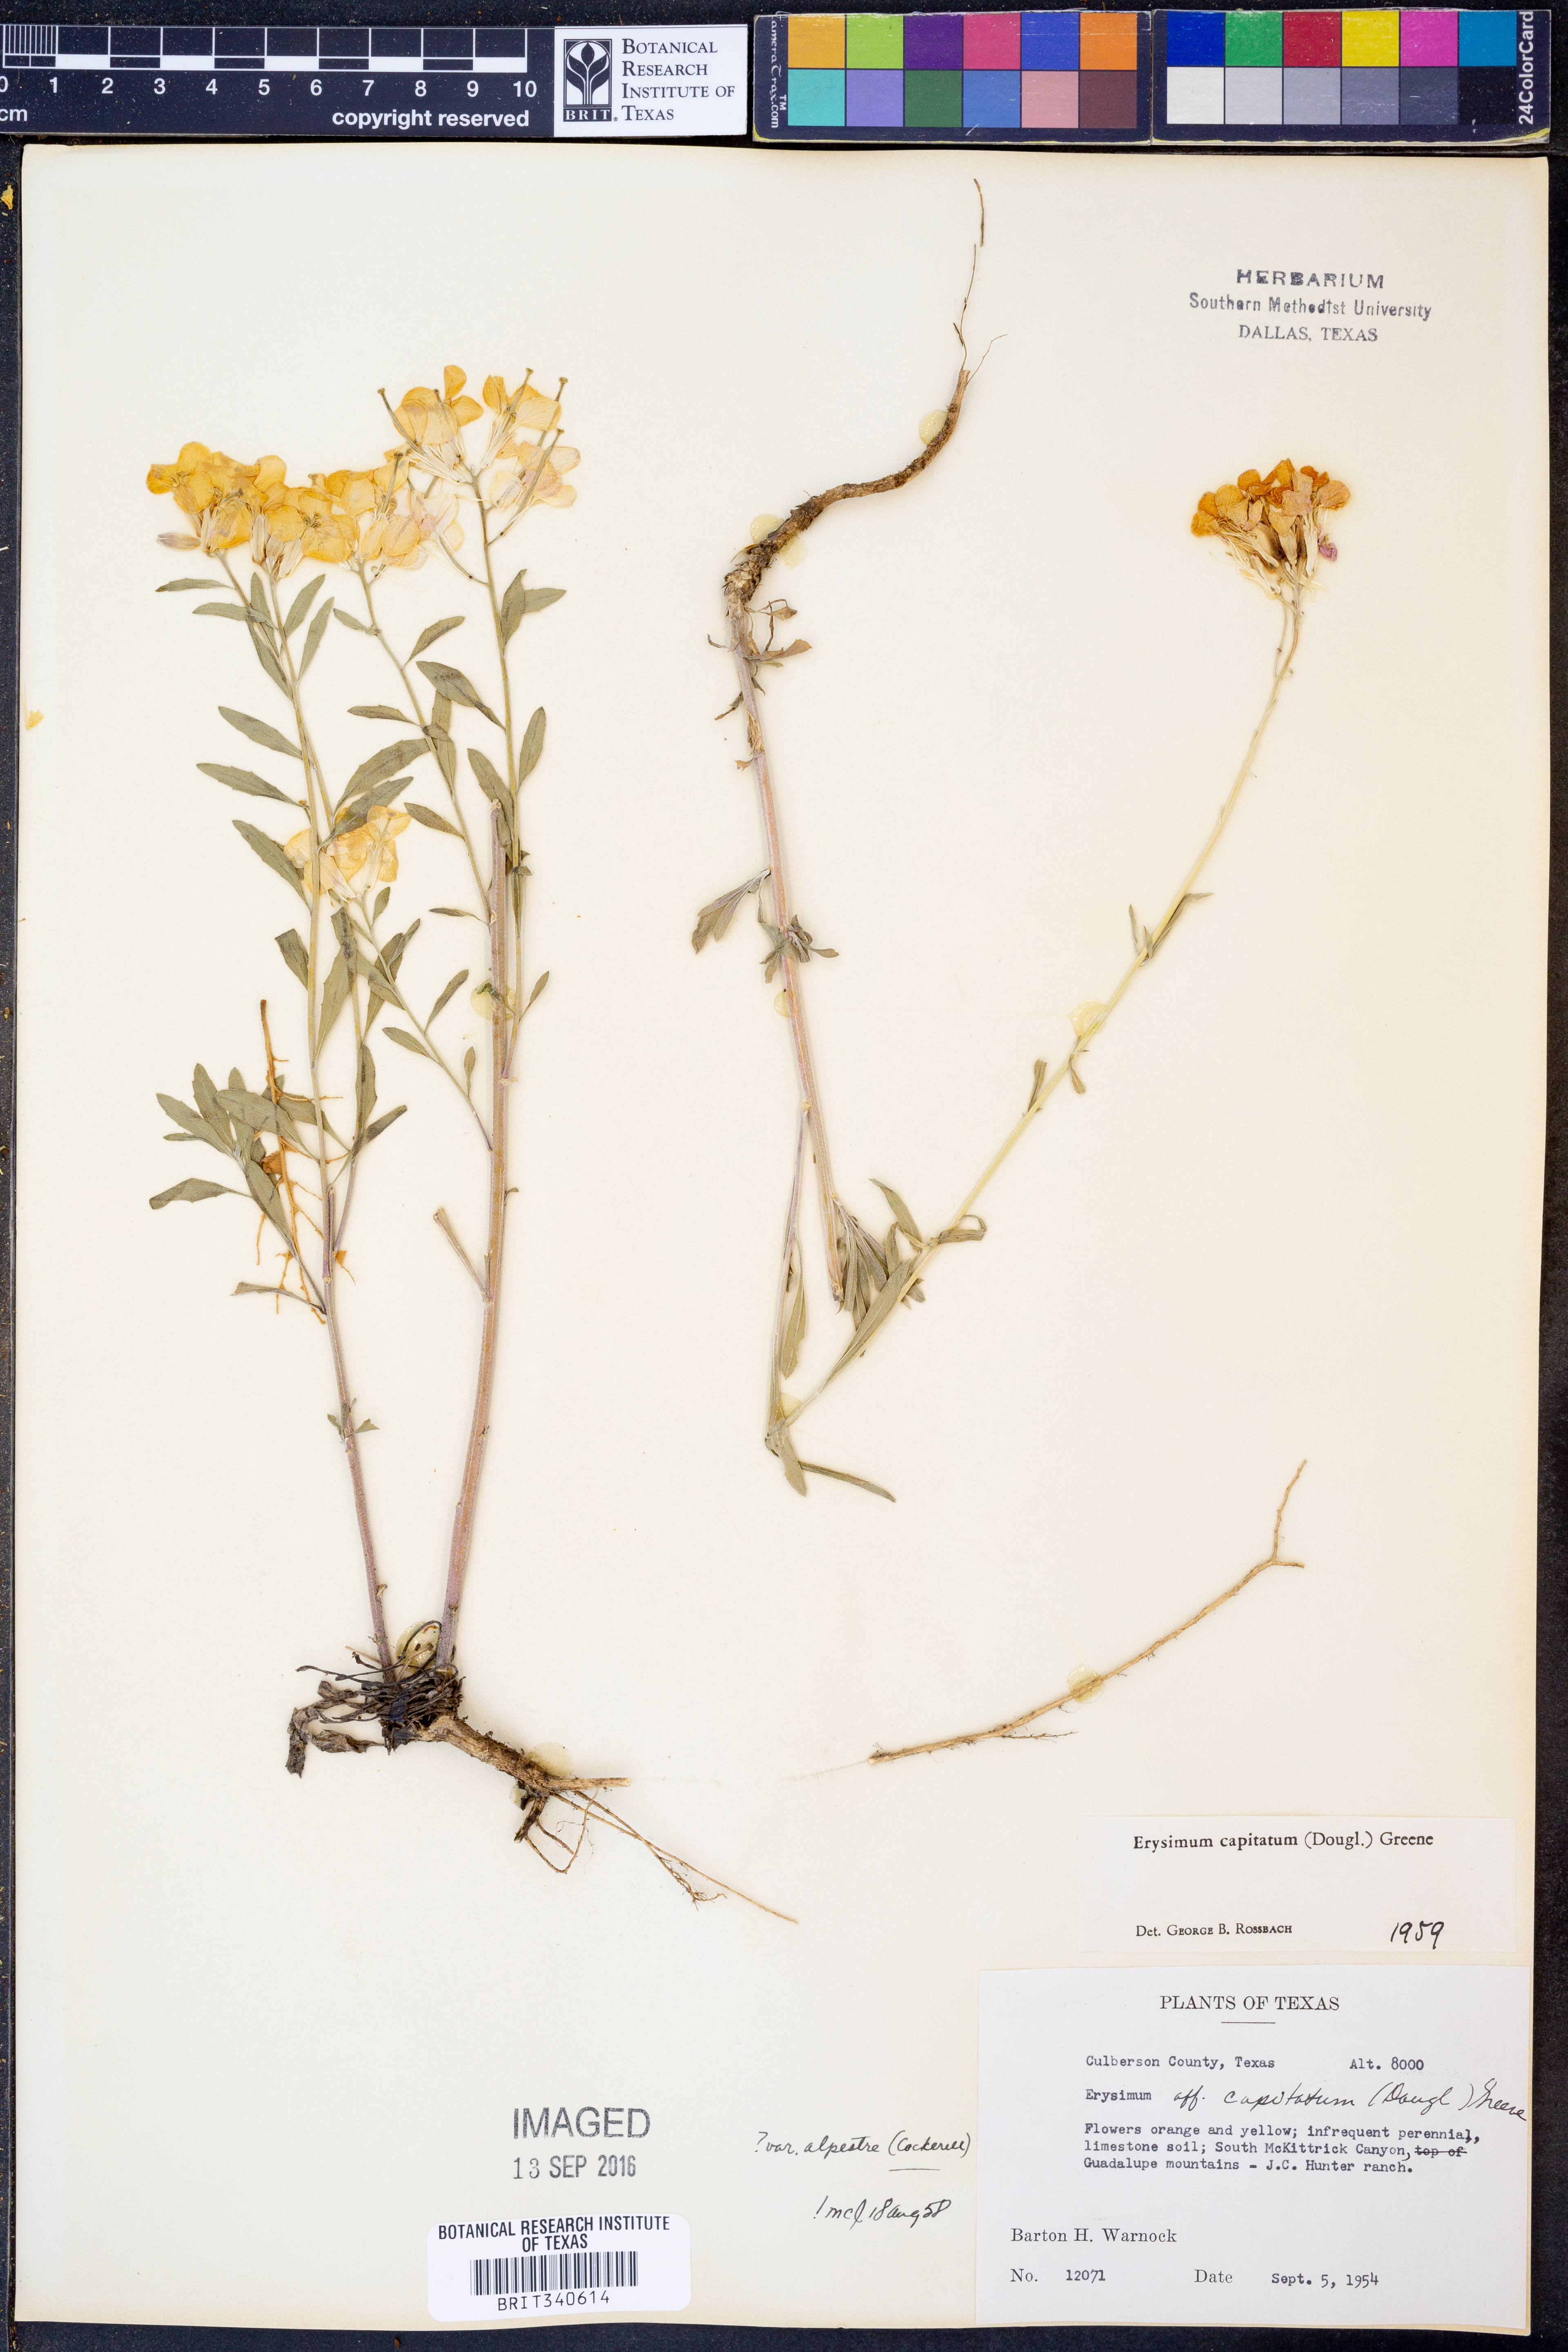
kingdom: Plantae
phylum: Tracheophyta
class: Magnoliopsida
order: Brassicales
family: Brassicaceae
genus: Erysimum
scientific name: Erysimum capitatum
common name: Western wallflower
